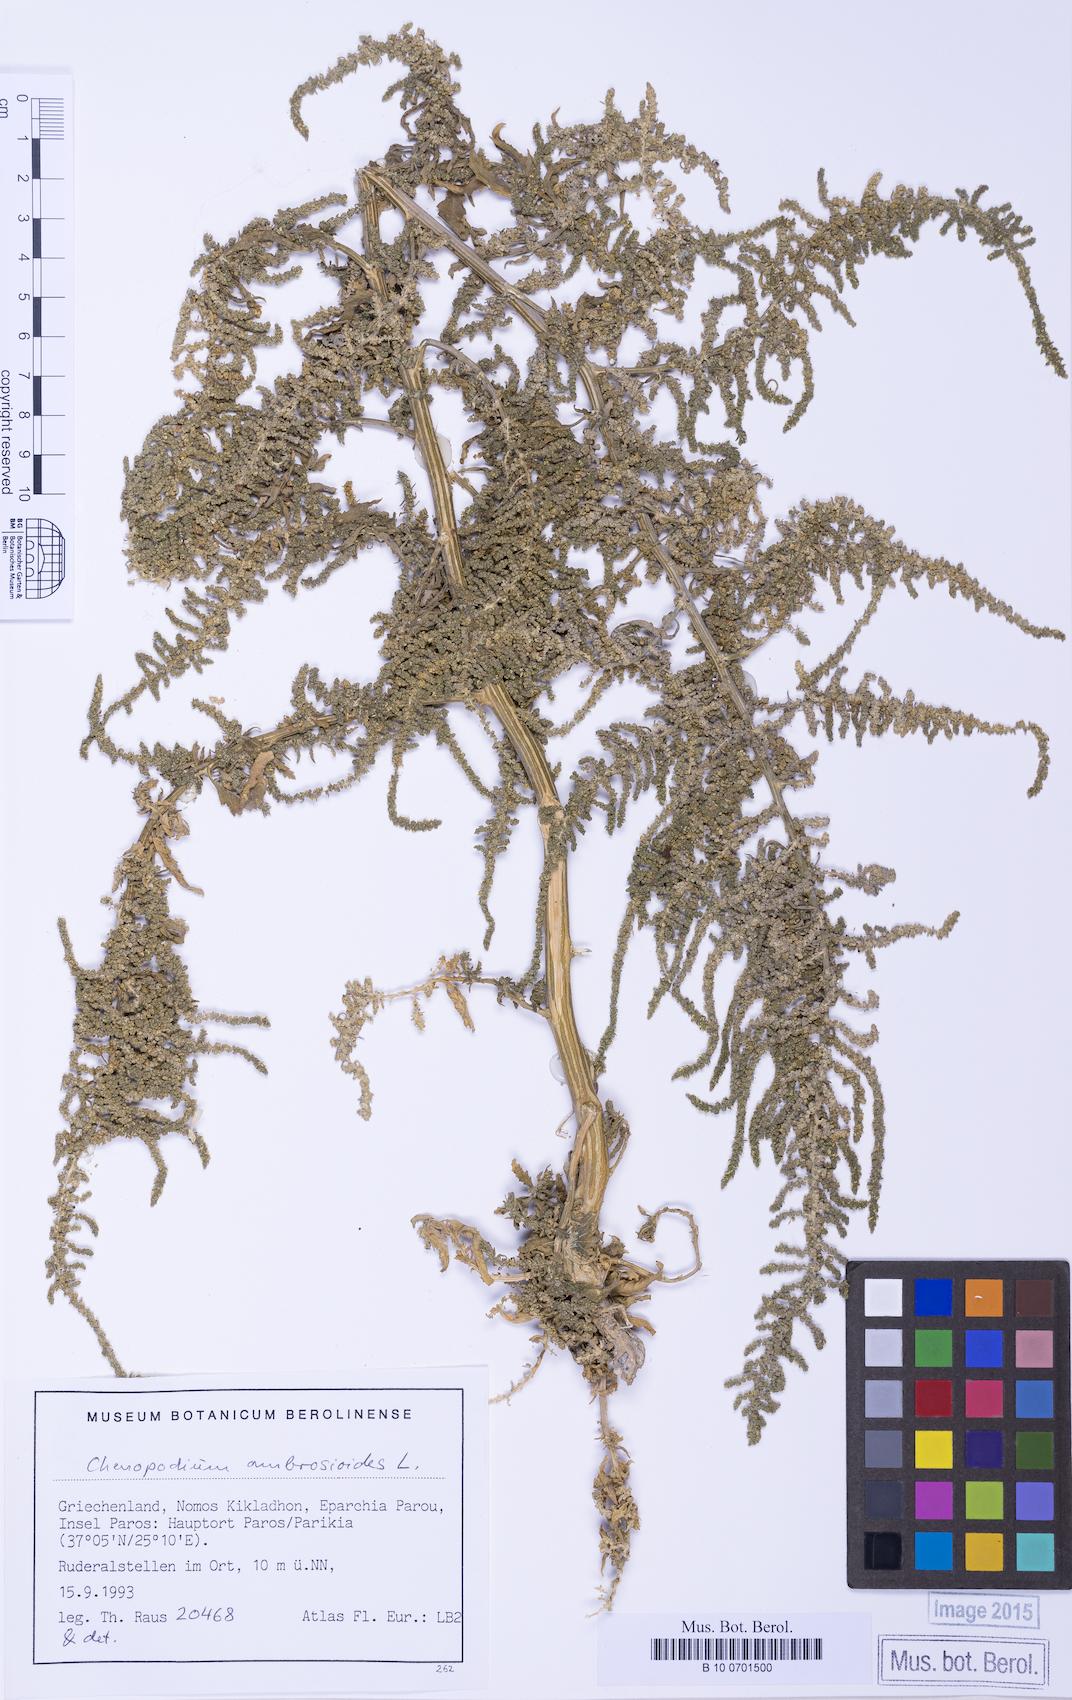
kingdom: Plantae
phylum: Tracheophyta
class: Magnoliopsida
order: Caryophyllales
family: Amaranthaceae
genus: Dysphania
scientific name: Dysphania ambrosioides
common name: Wormseed
